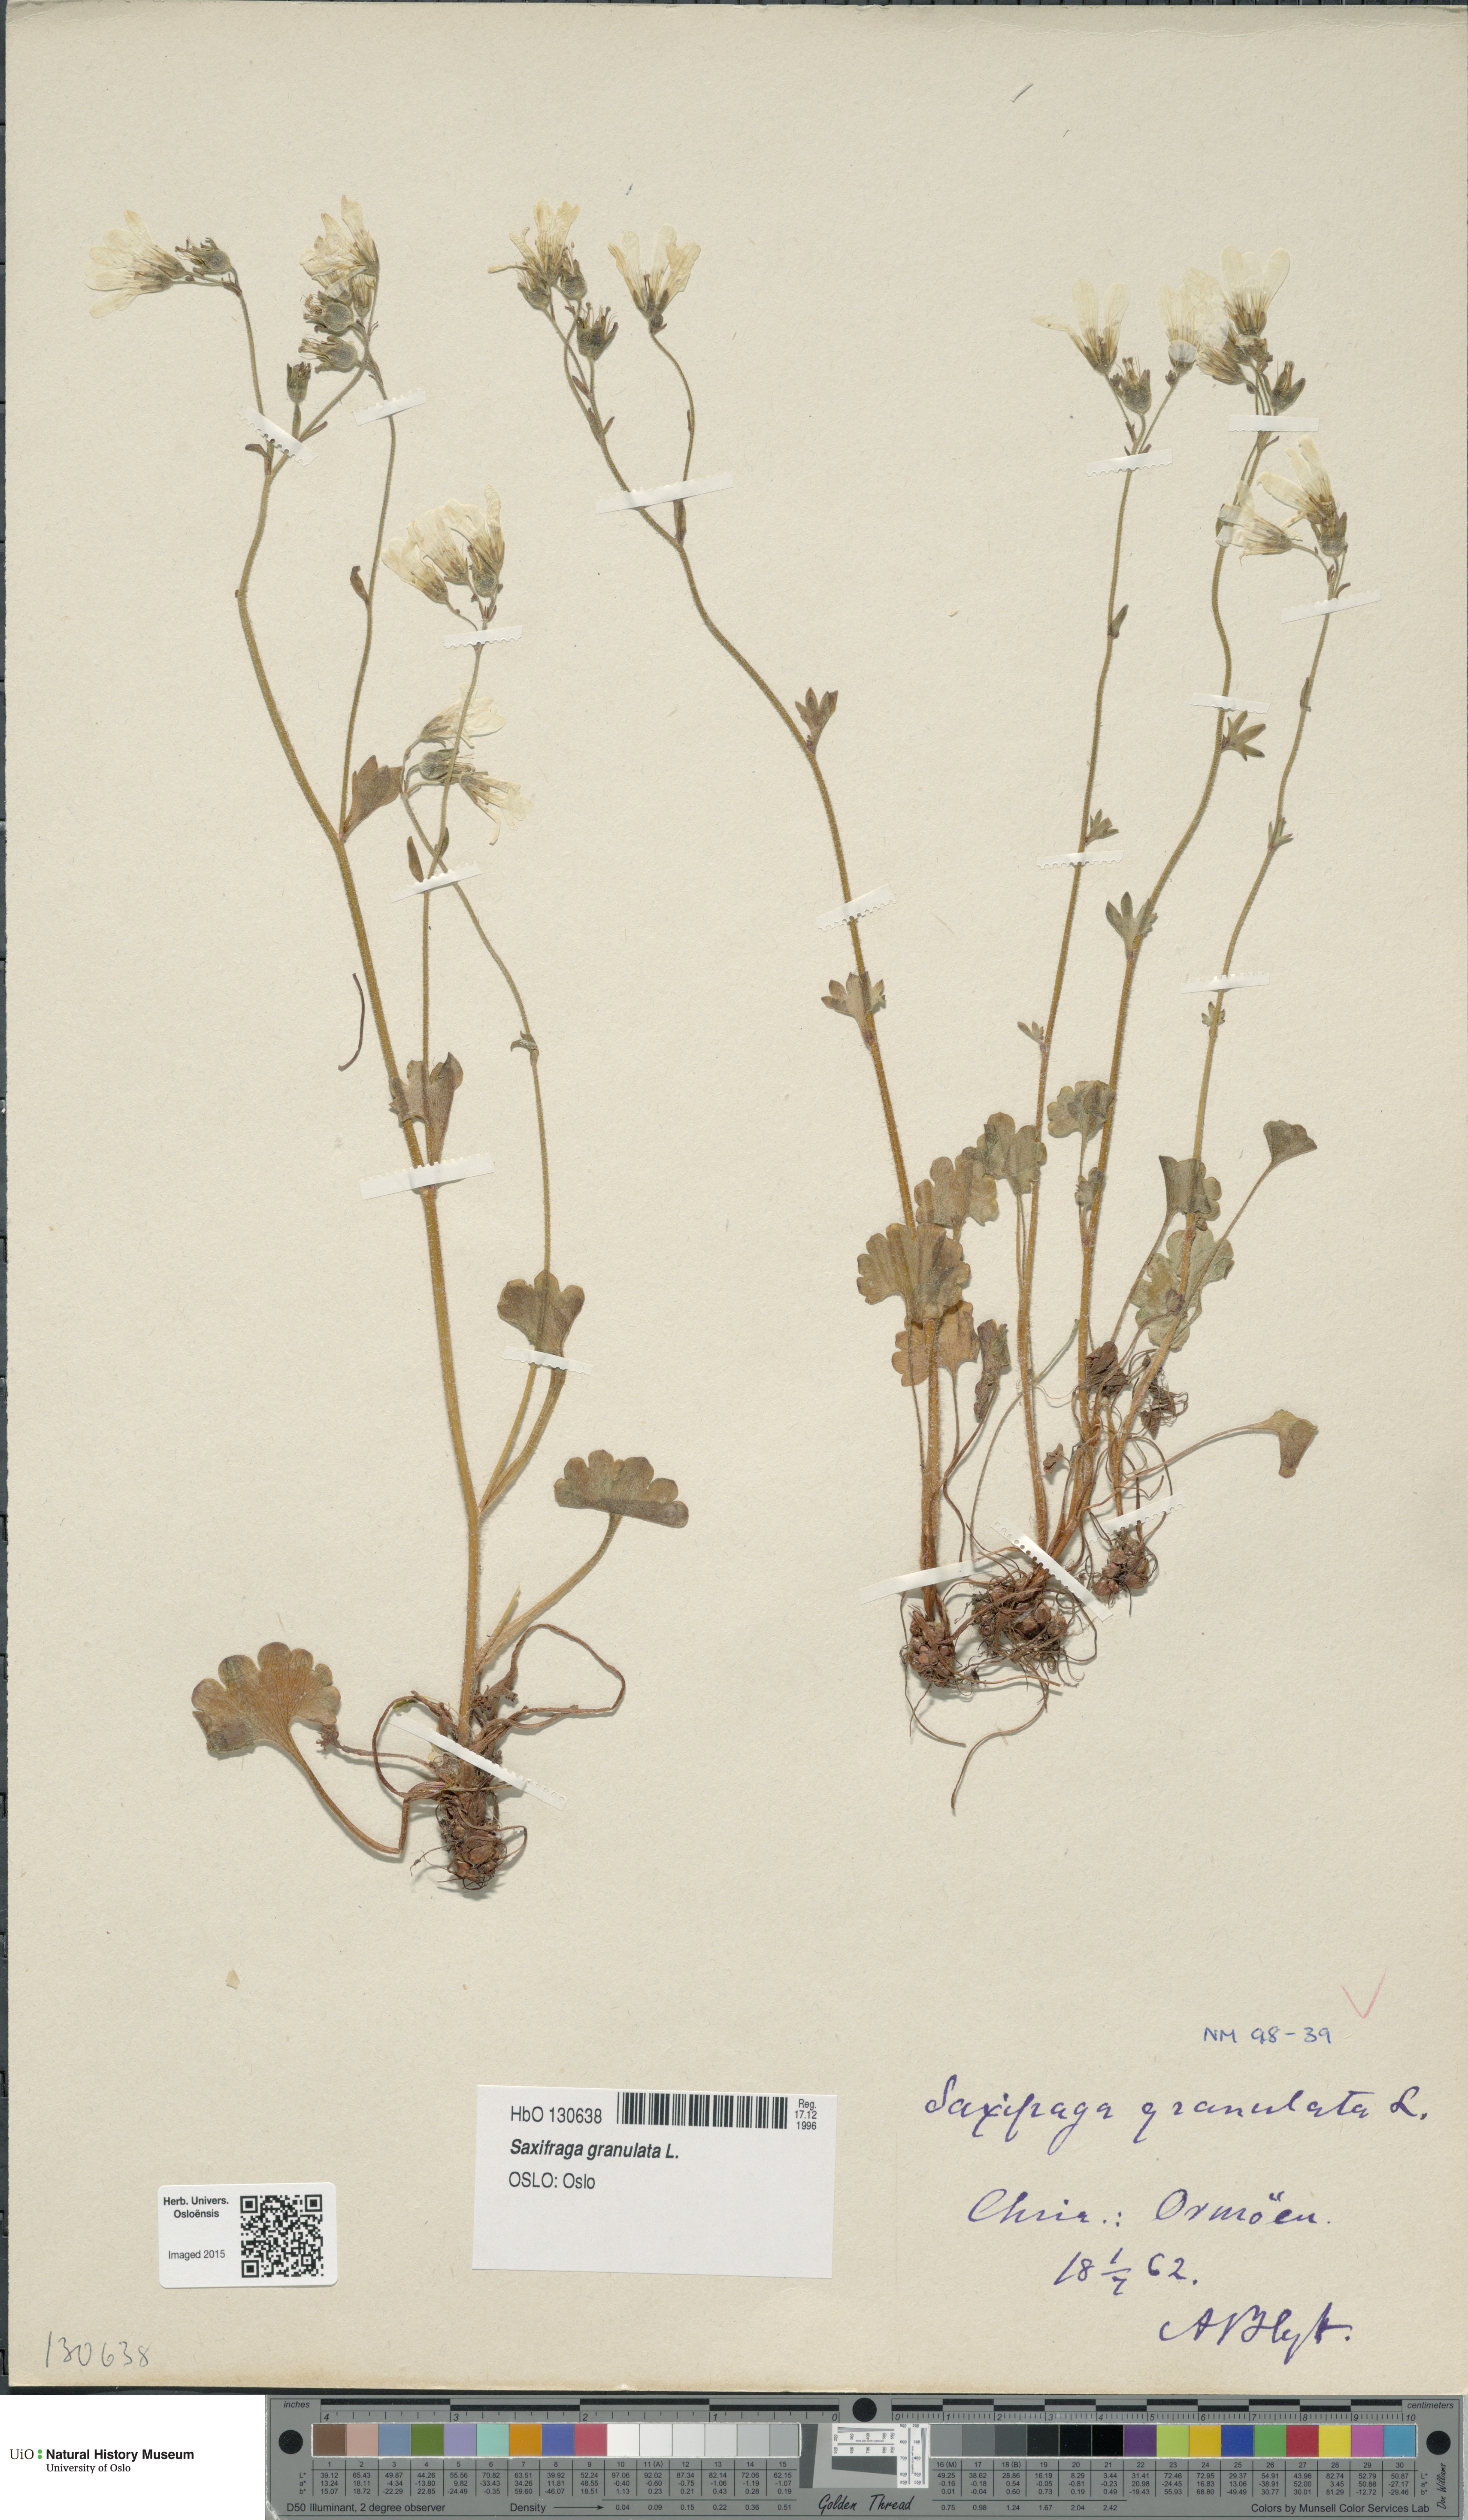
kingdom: Plantae
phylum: Tracheophyta
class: Magnoliopsida
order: Saxifragales
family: Saxifragaceae
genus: Saxifraga
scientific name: Saxifraga granulata
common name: Meadow saxifrage
